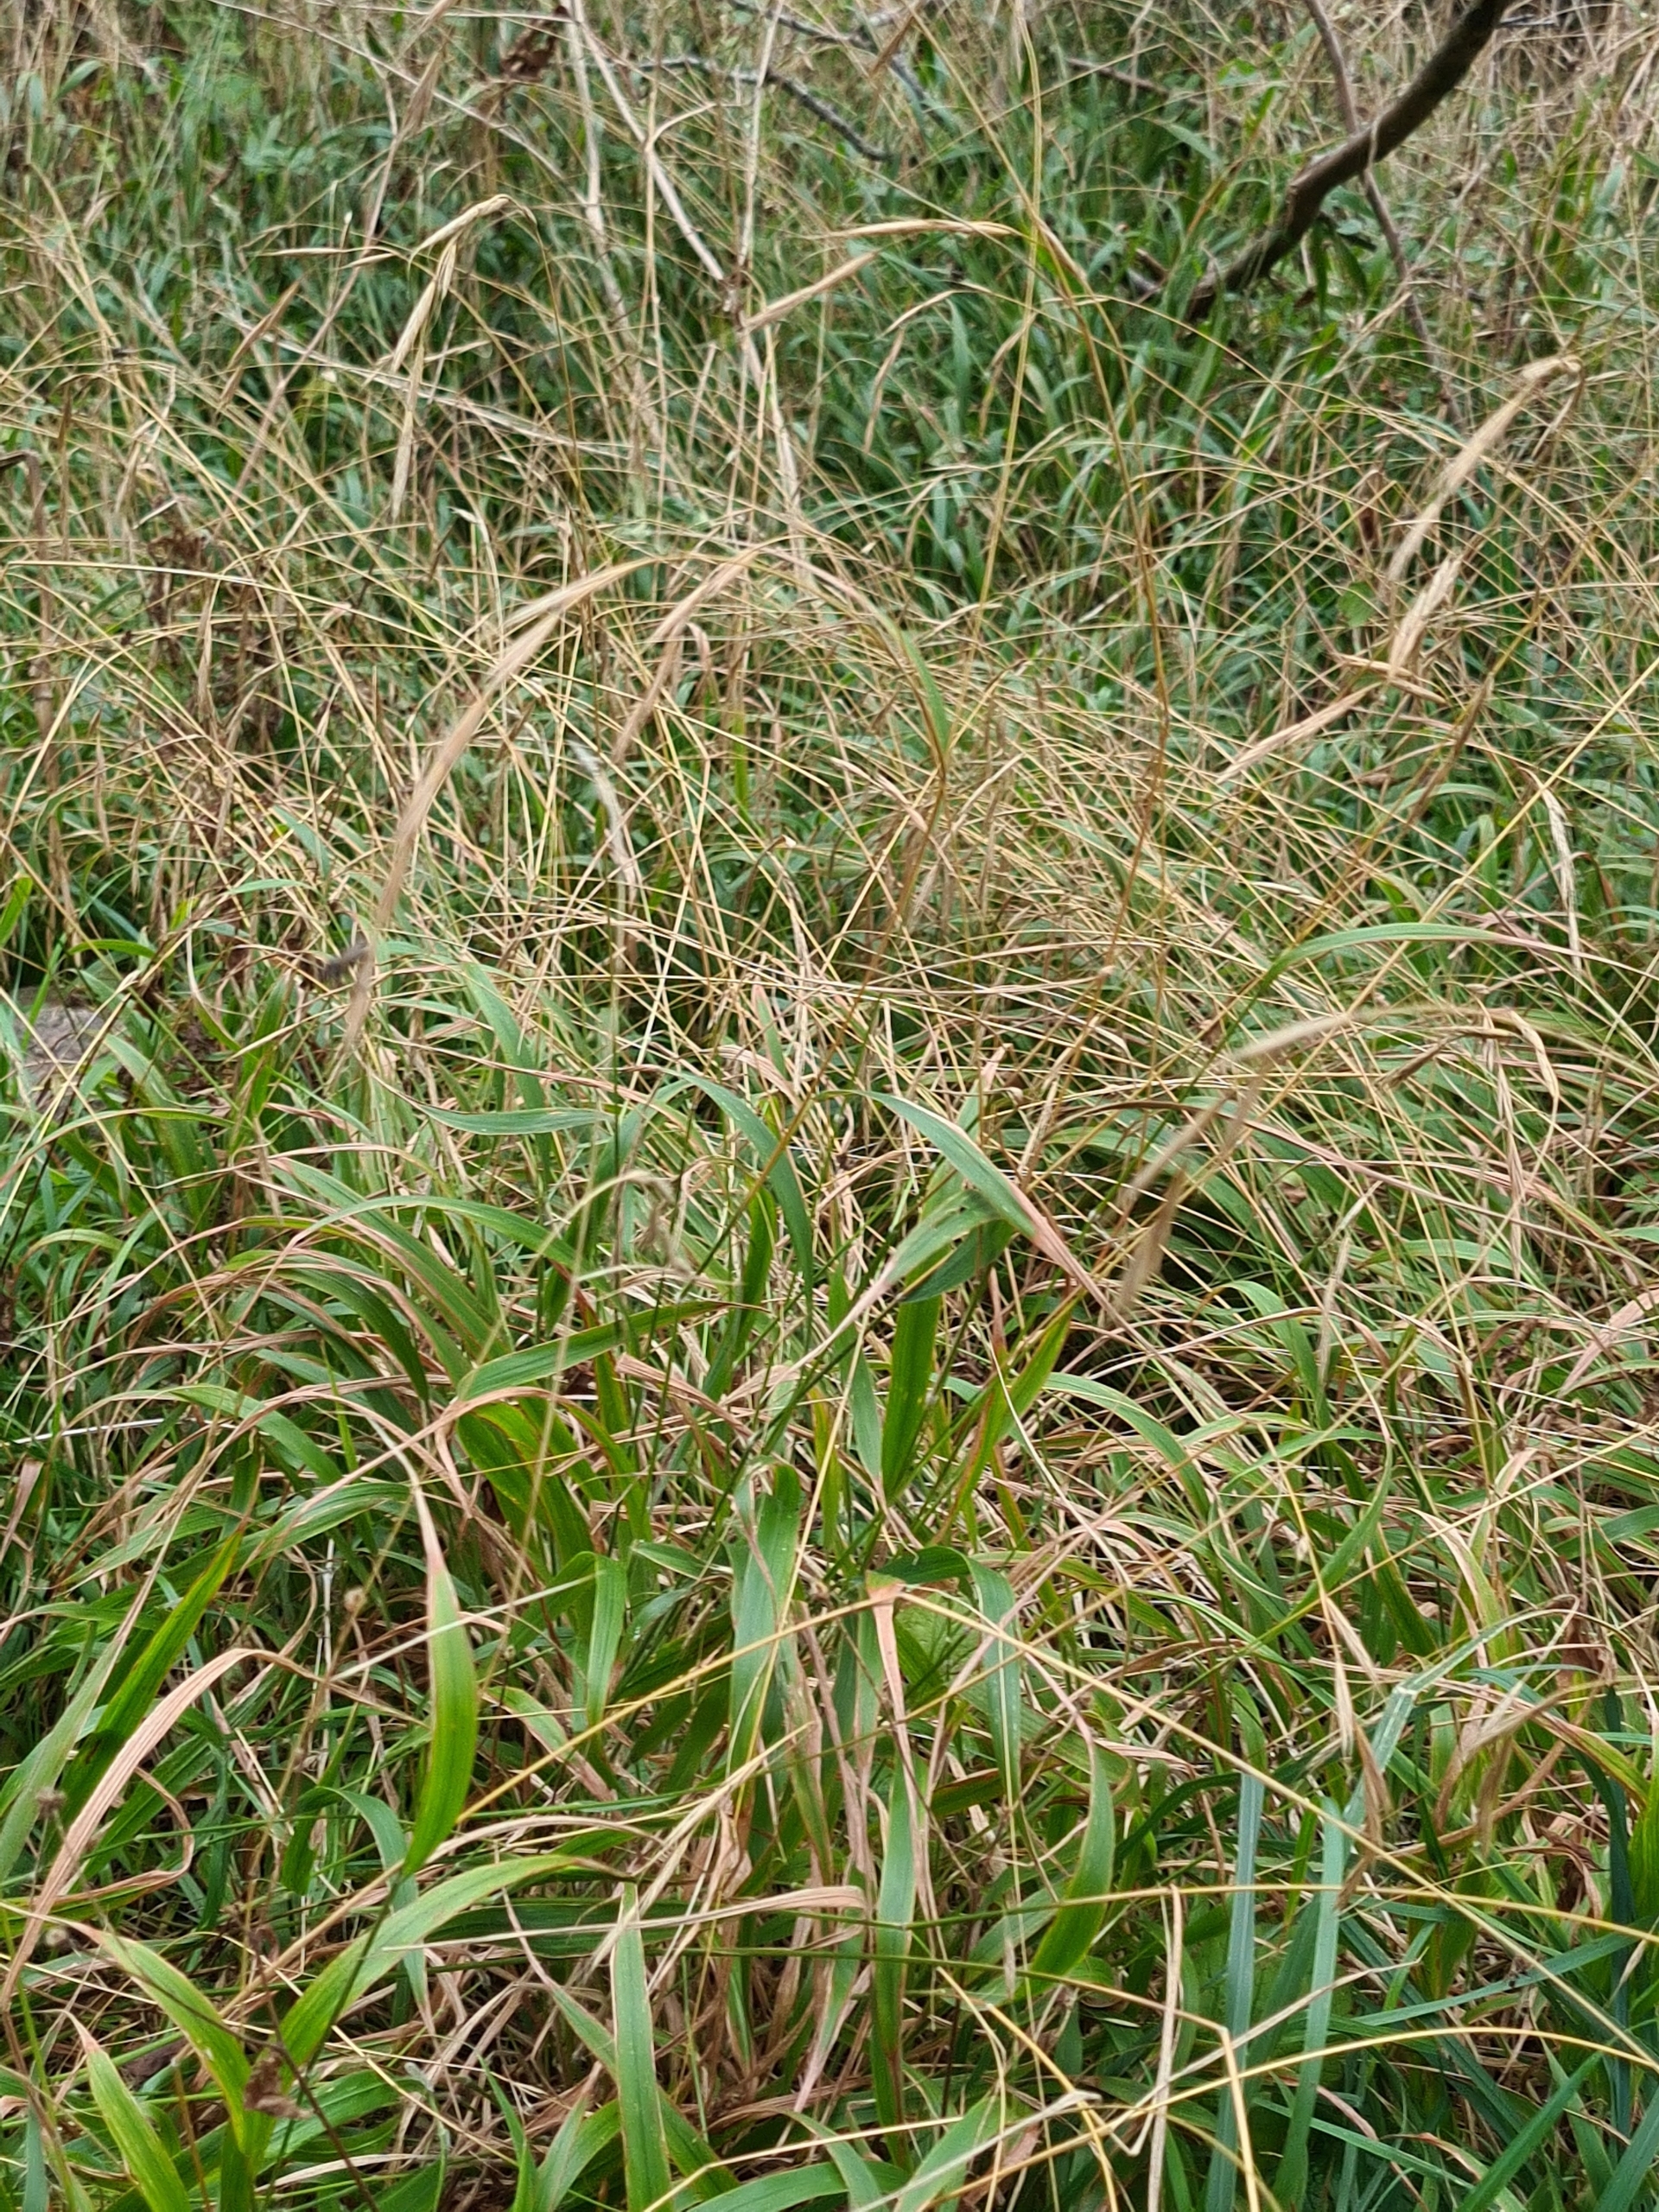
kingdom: Plantae
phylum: Tracheophyta
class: Liliopsida
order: Poales
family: Poaceae
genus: Brachypodium
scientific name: Brachypodium sylvaticum
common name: Skov-stilkaks
